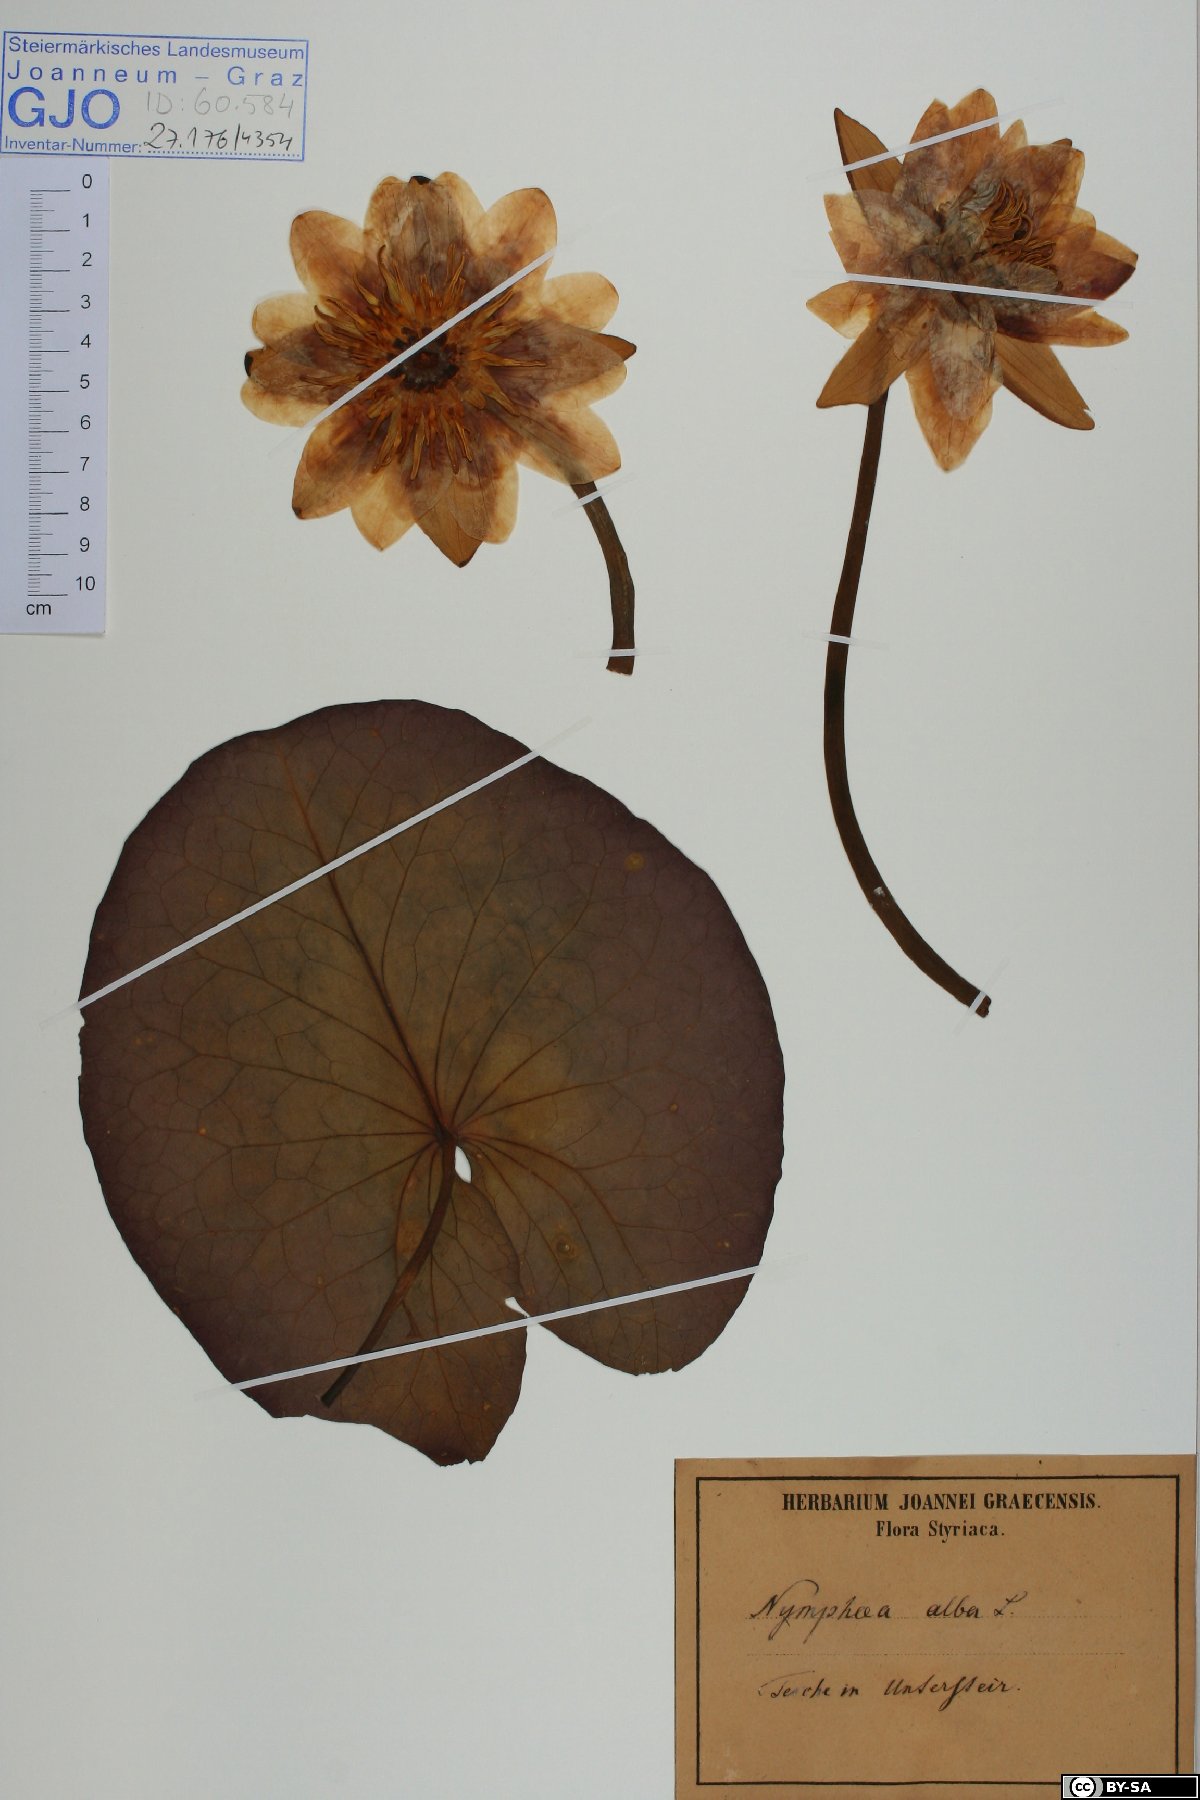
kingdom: Plantae
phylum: Tracheophyta
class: Magnoliopsida
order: Nymphaeales
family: Nymphaeaceae
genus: Nymphaea
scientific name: Nymphaea alba
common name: White water-lily
